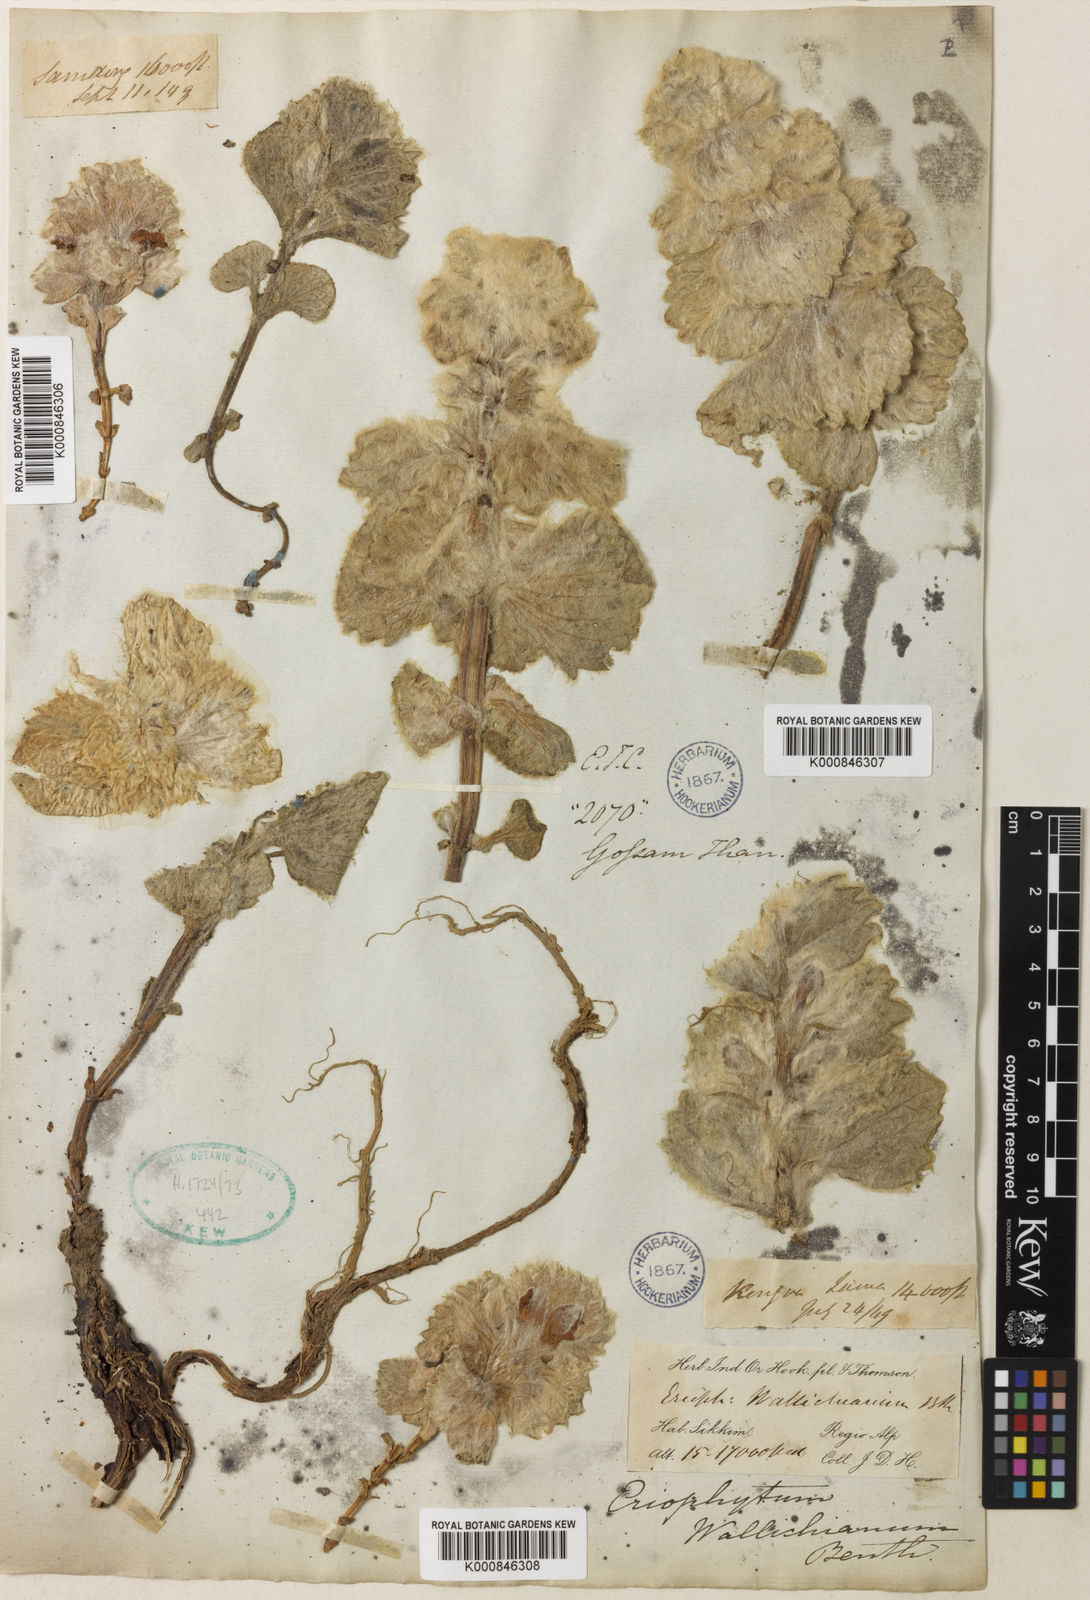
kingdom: Plantae
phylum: Tracheophyta
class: Magnoliopsida
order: Lamiales
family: Lamiaceae
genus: Eriophyton
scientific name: Eriophyton wallichii
